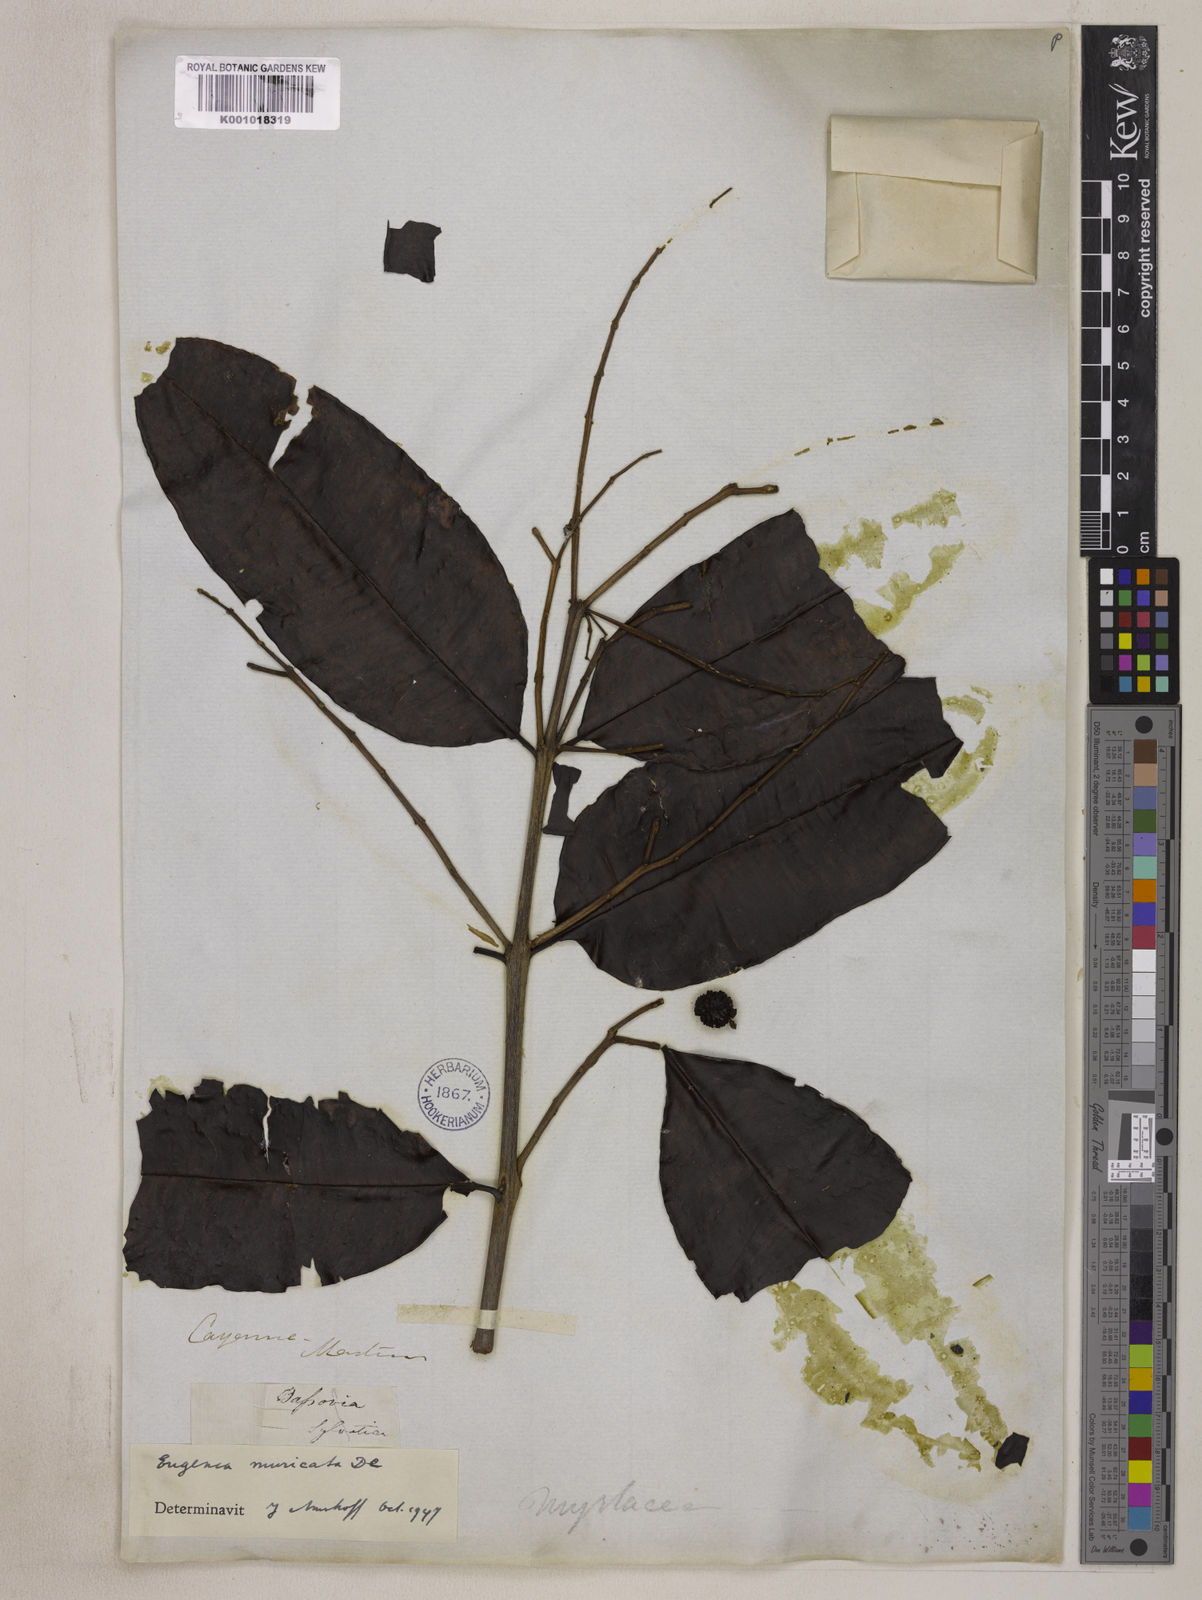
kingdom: Plantae
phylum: Tracheophyta
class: Magnoliopsida
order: Myrtales
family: Myrtaceae
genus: Eugenia
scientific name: Eugenia muricata
